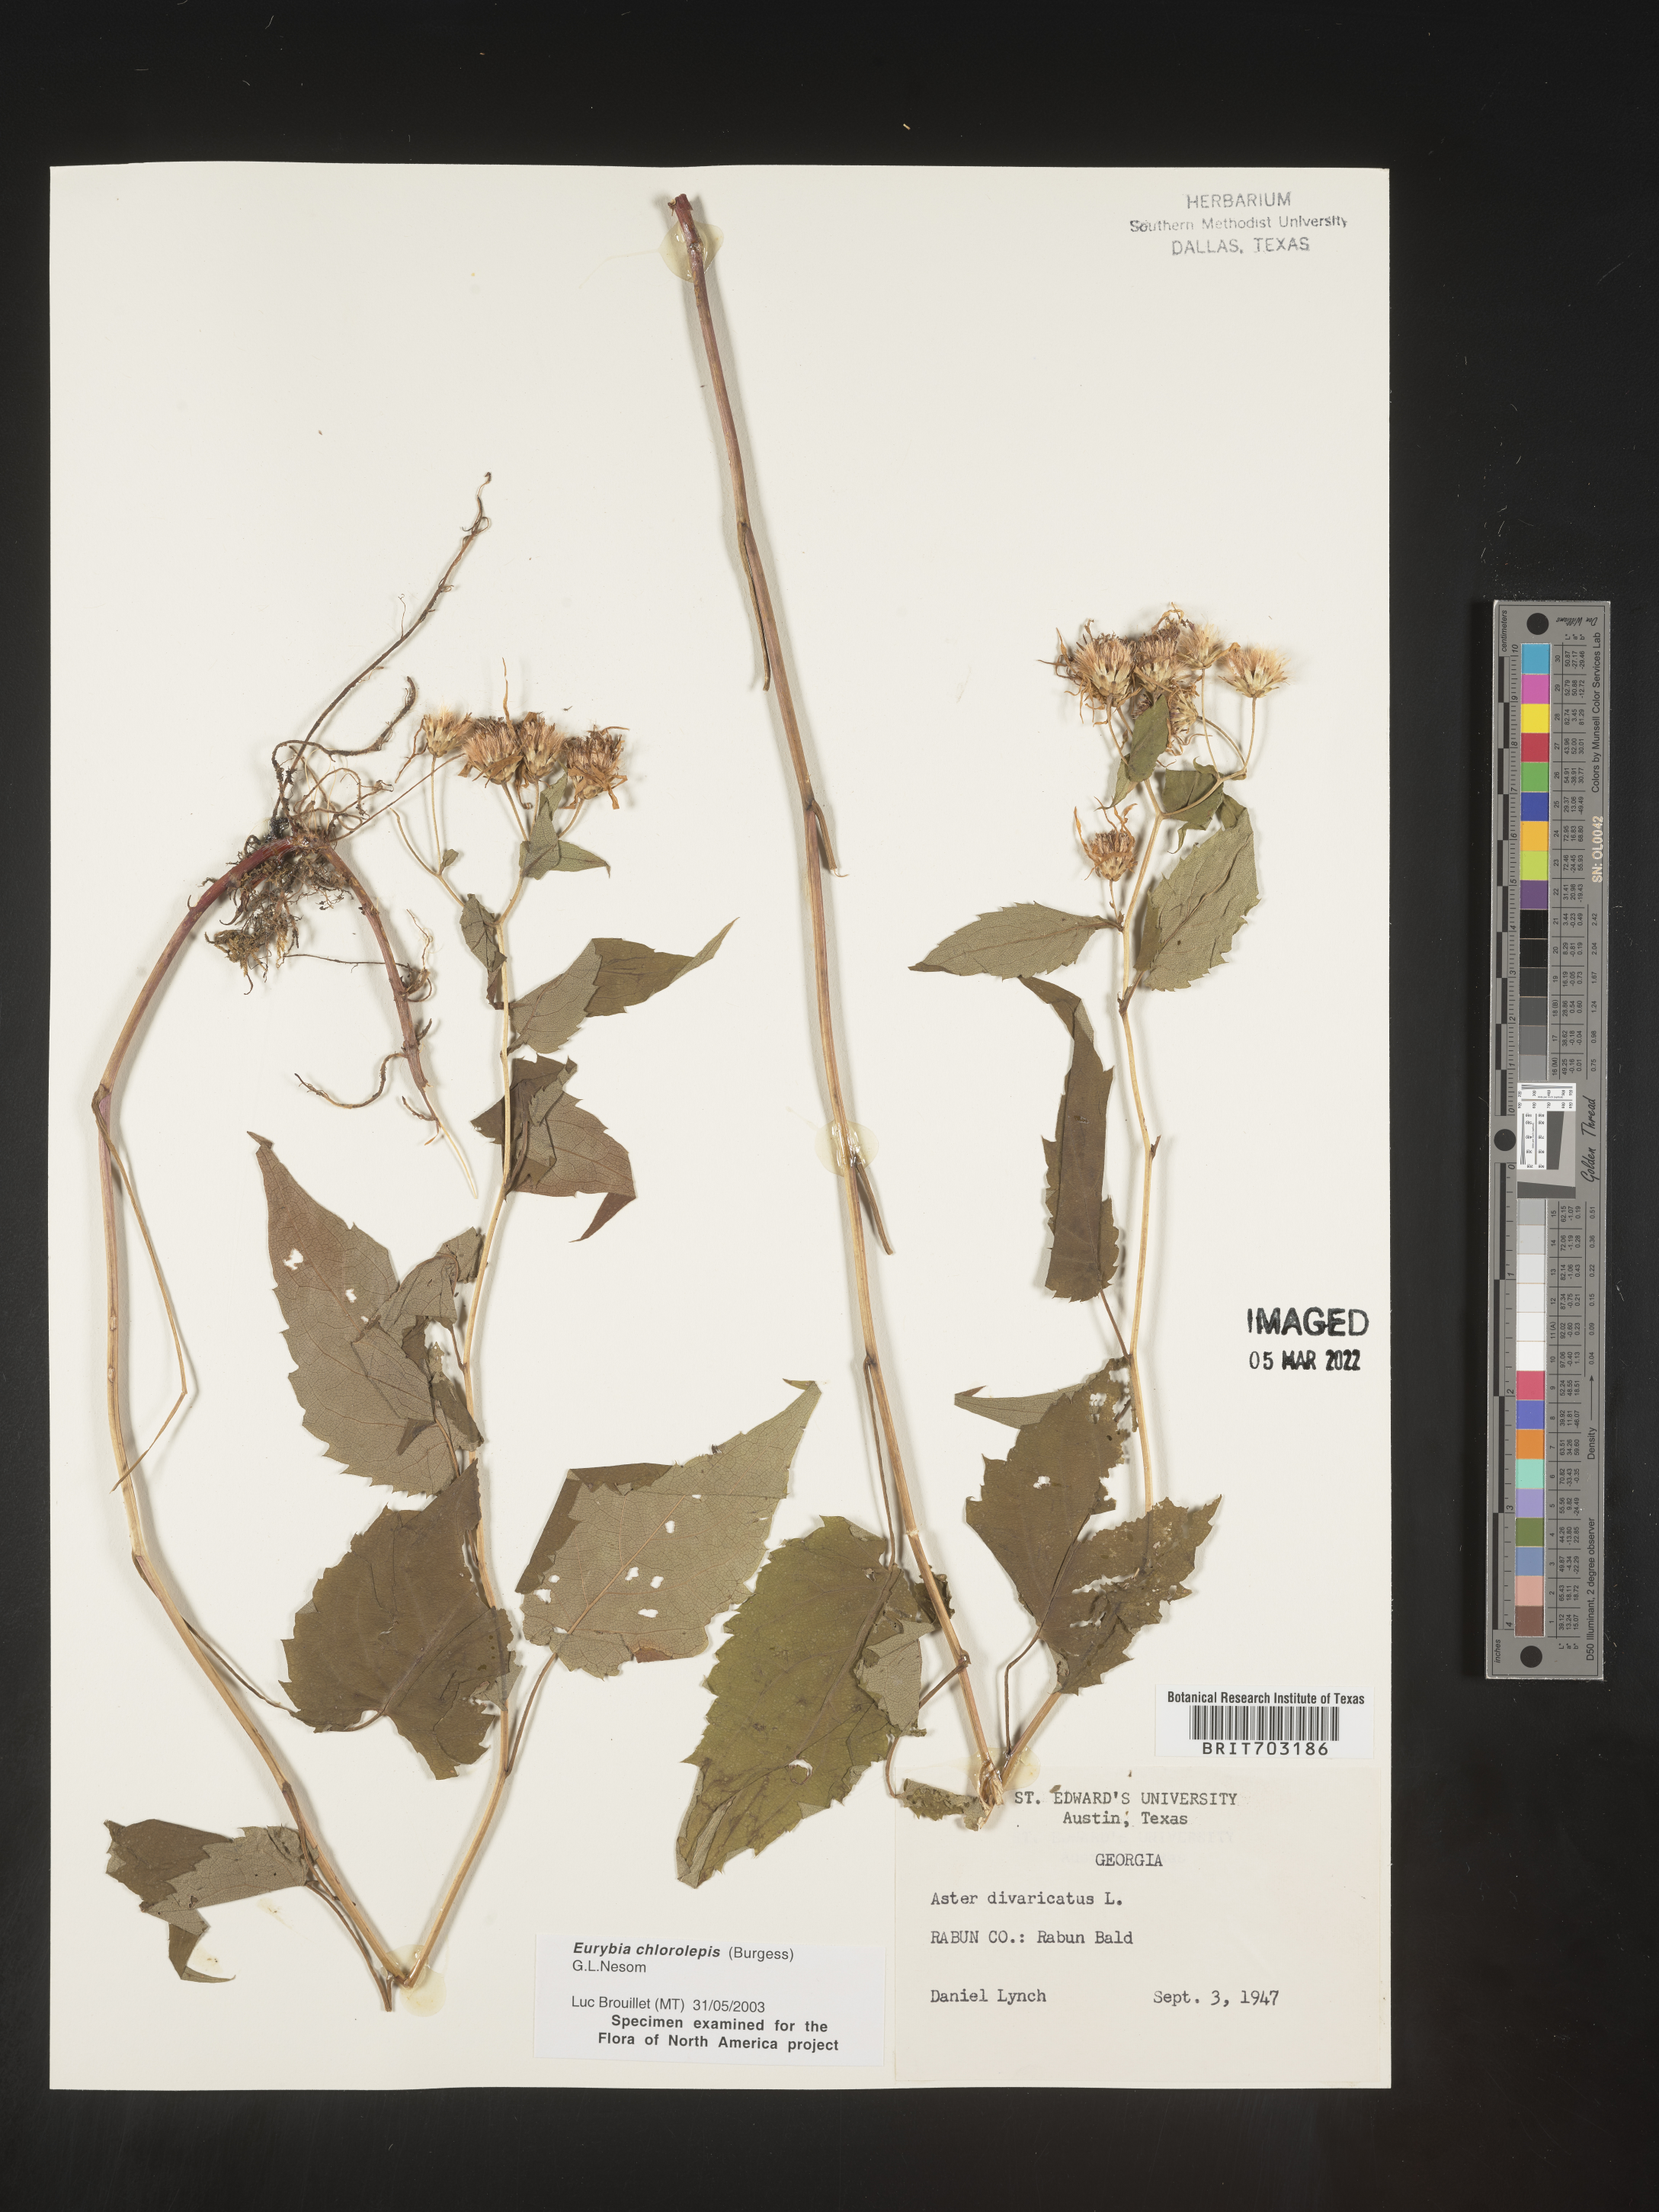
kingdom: Plantae
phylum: Tracheophyta
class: Magnoliopsida
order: Asterales
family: Asteraceae
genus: Eurybia
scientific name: Eurybia chlorolepis
